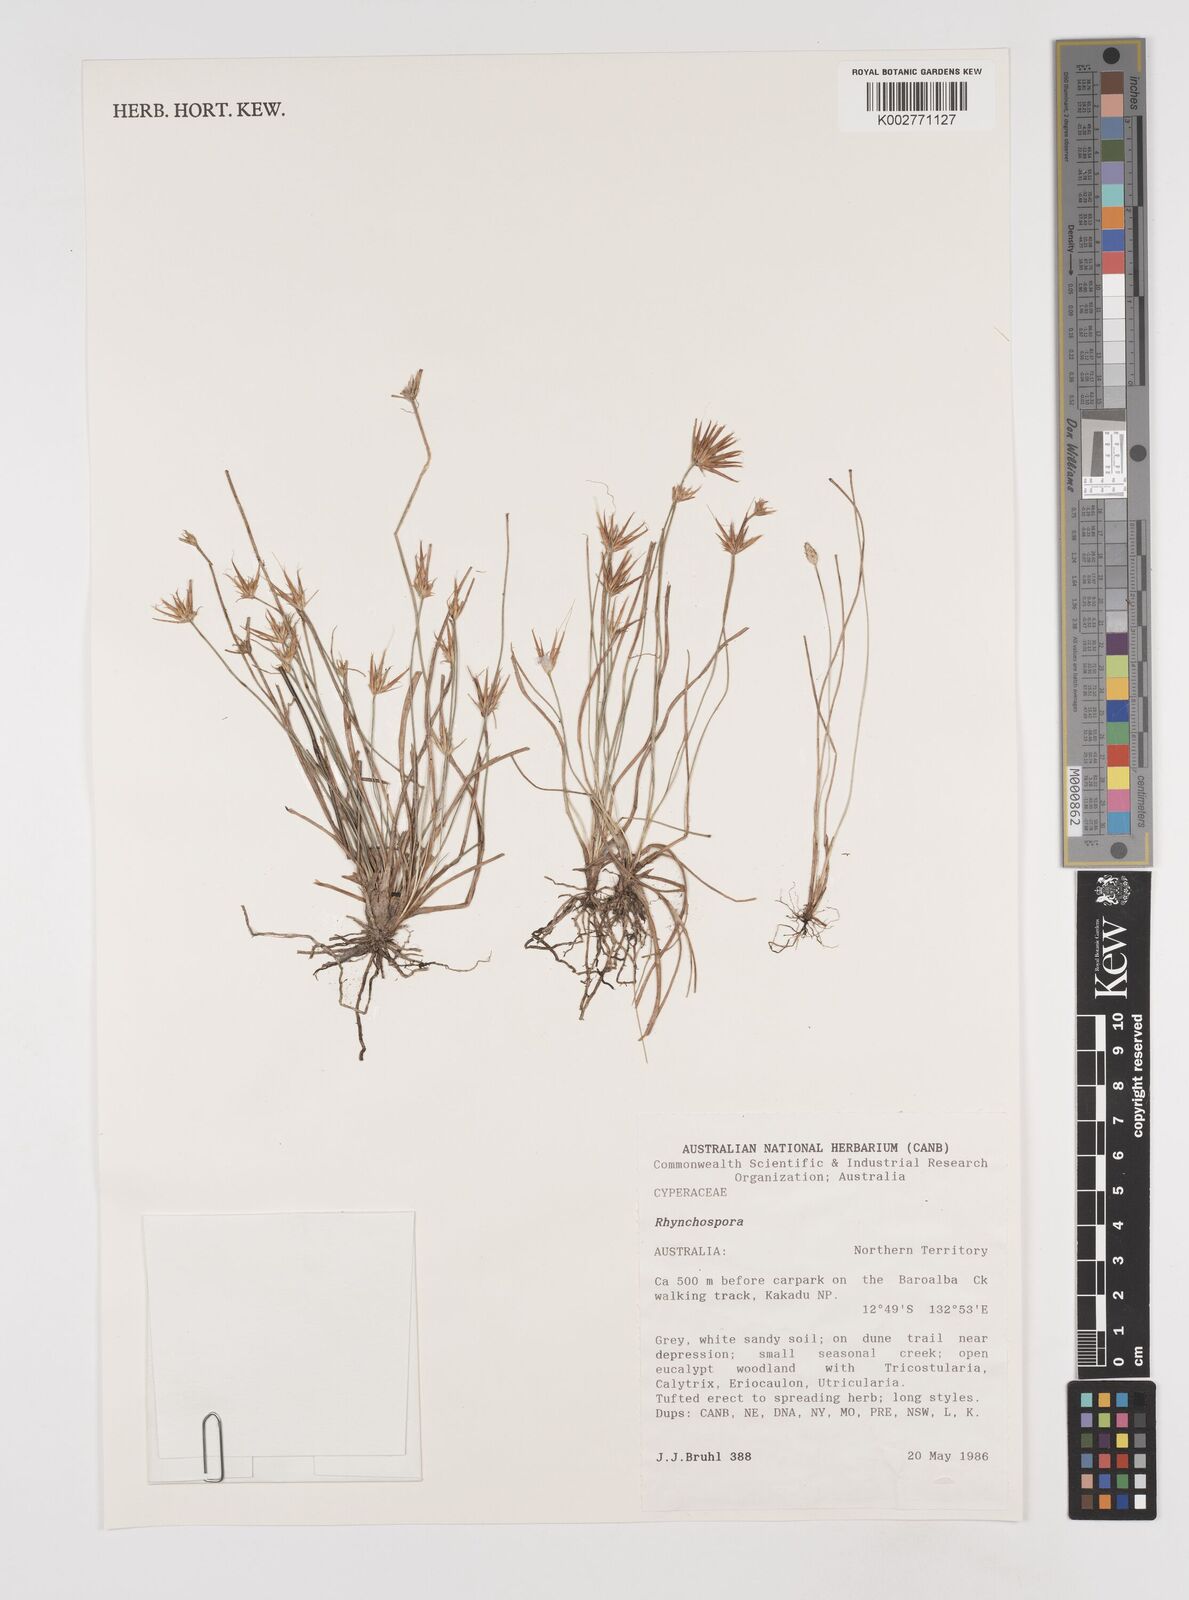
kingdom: Plantae
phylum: Tracheophyta
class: Liliopsida
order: Poales
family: Cyperaceae
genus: Rhynchospora
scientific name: Rhynchospora
